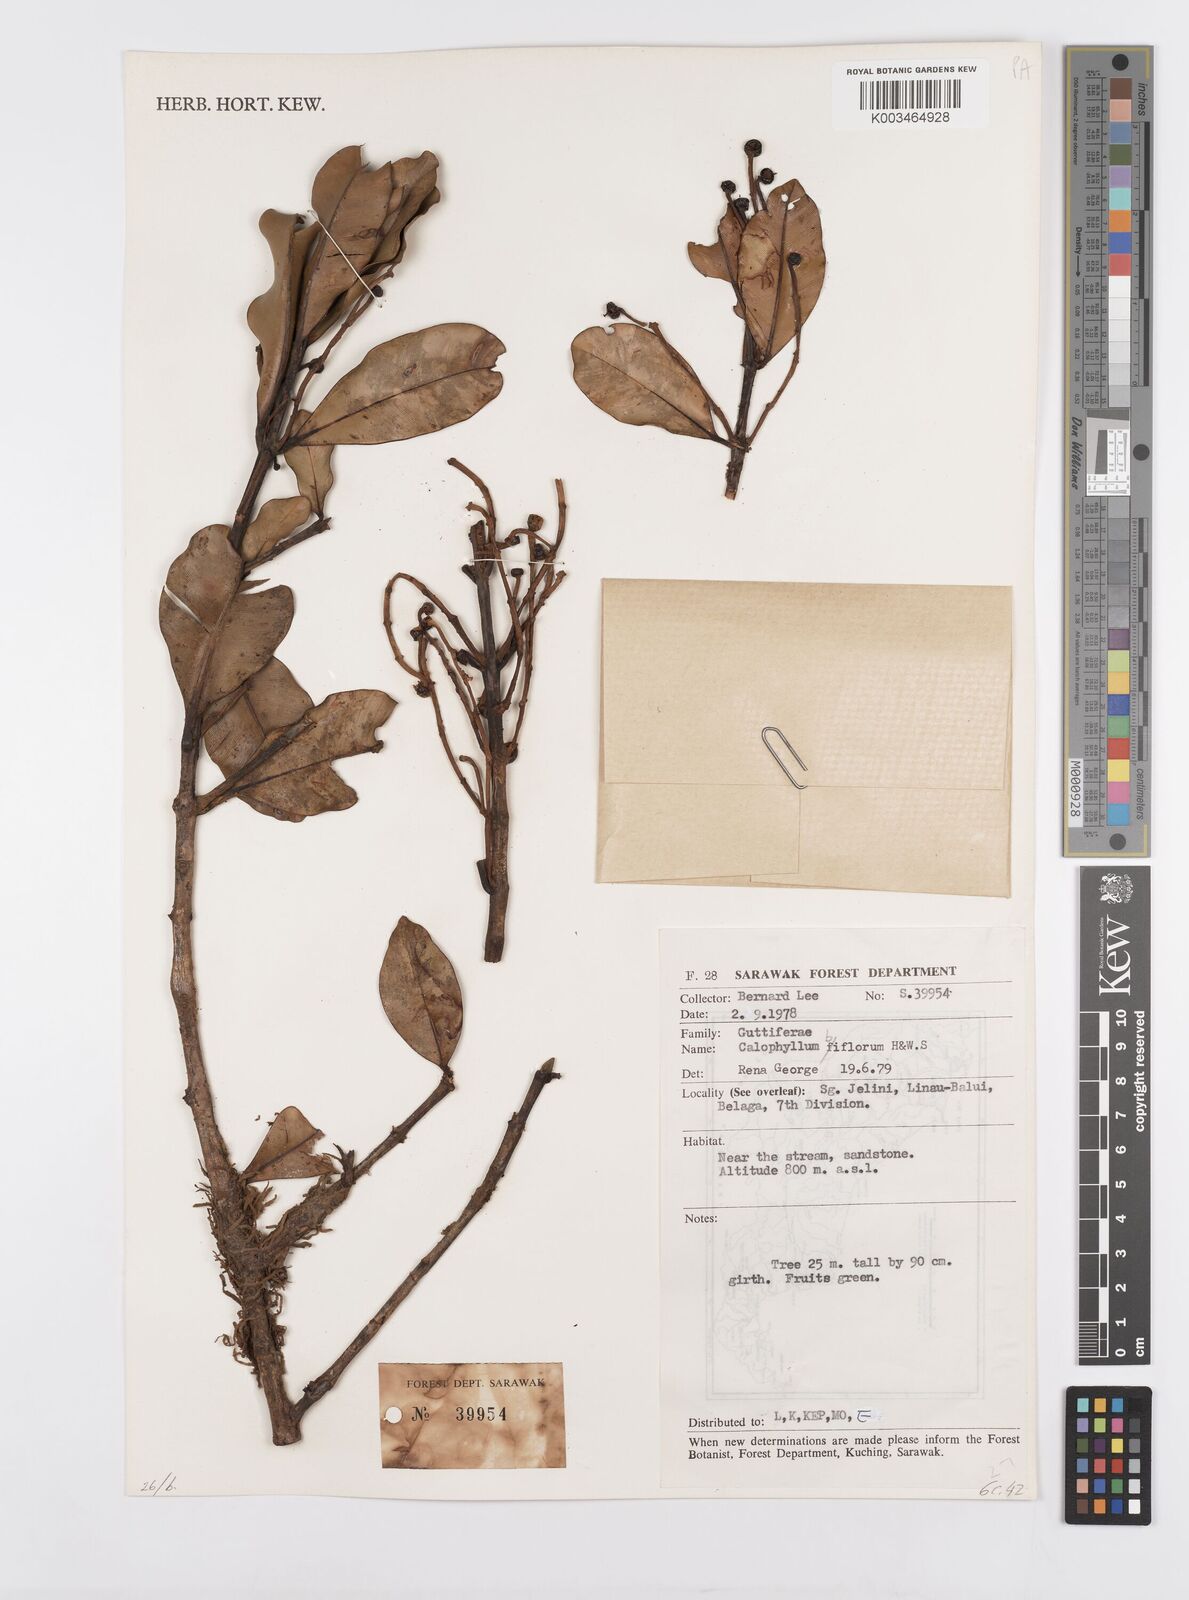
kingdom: Plantae
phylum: Tracheophyta
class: Magnoliopsida
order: Malpighiales
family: Calophyllaceae
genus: Calophyllum
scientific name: Calophyllum biflorum
